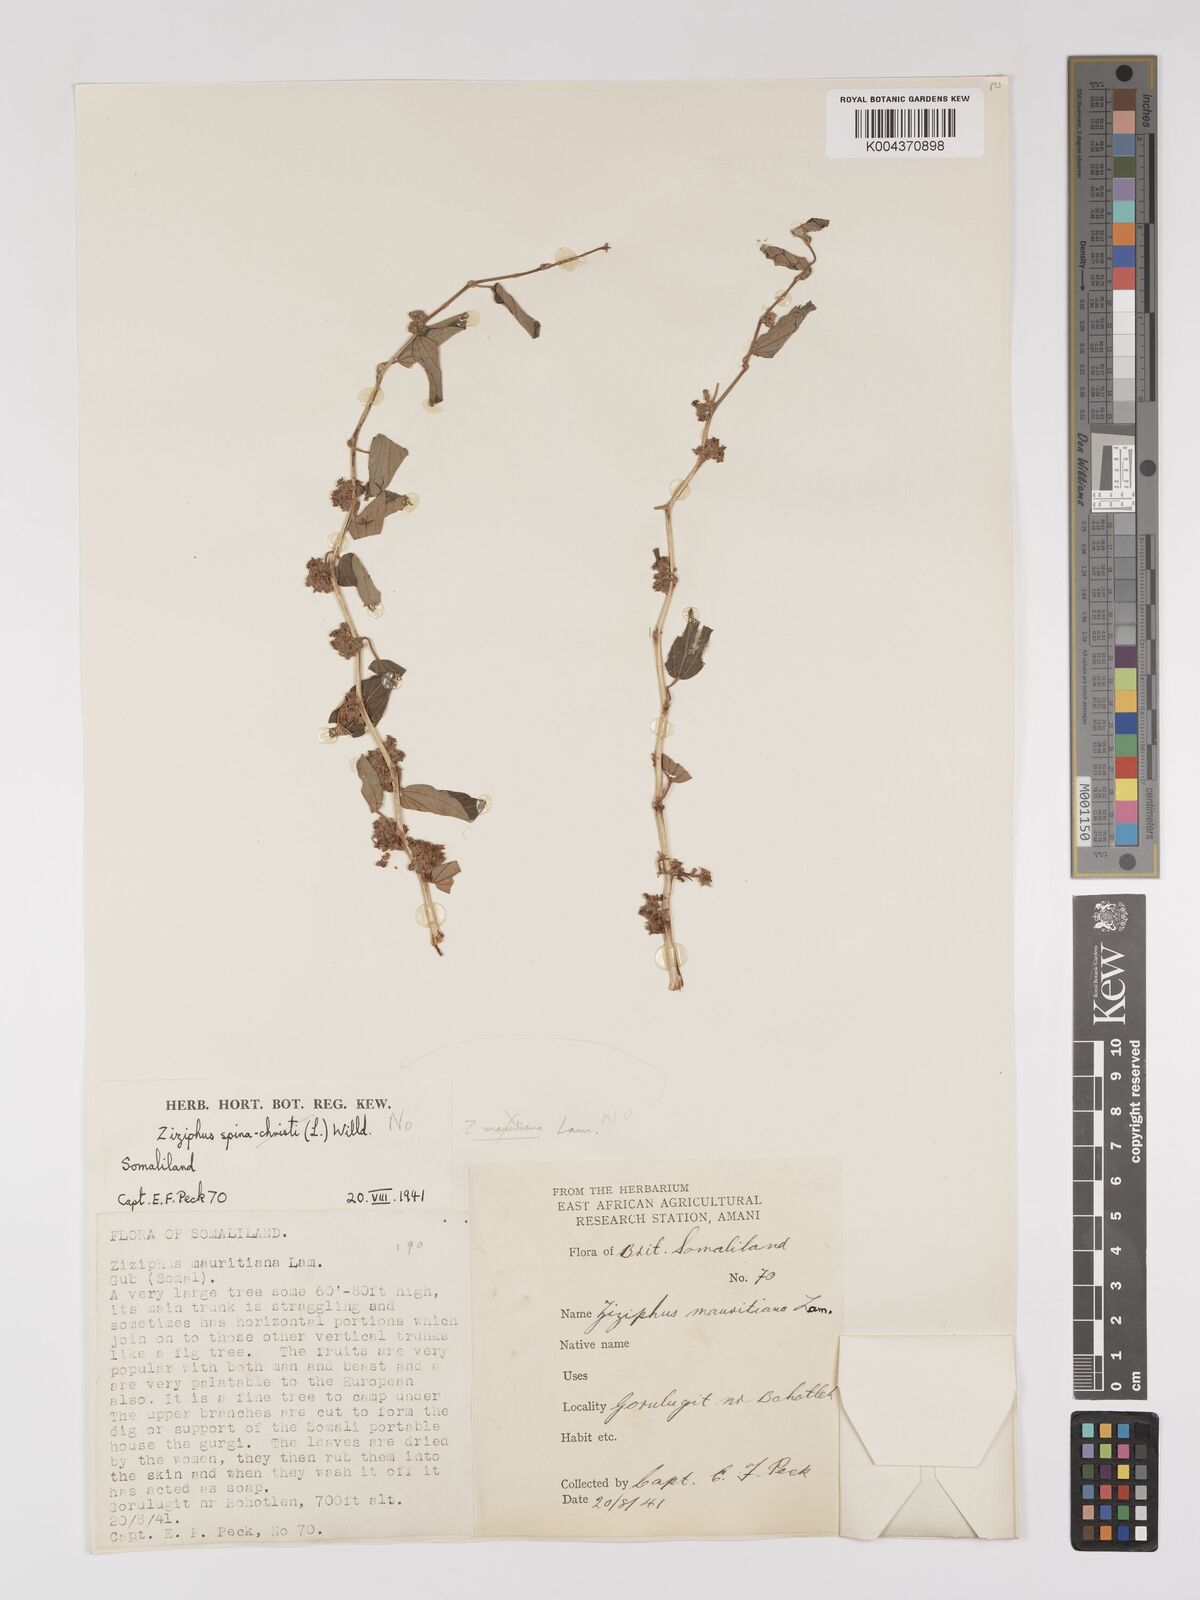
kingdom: Plantae
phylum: Tracheophyta
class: Magnoliopsida
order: Rosales
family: Rhamnaceae
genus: Ziziphus
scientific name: Ziziphus spina-christi
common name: Syrian christ-thorn
